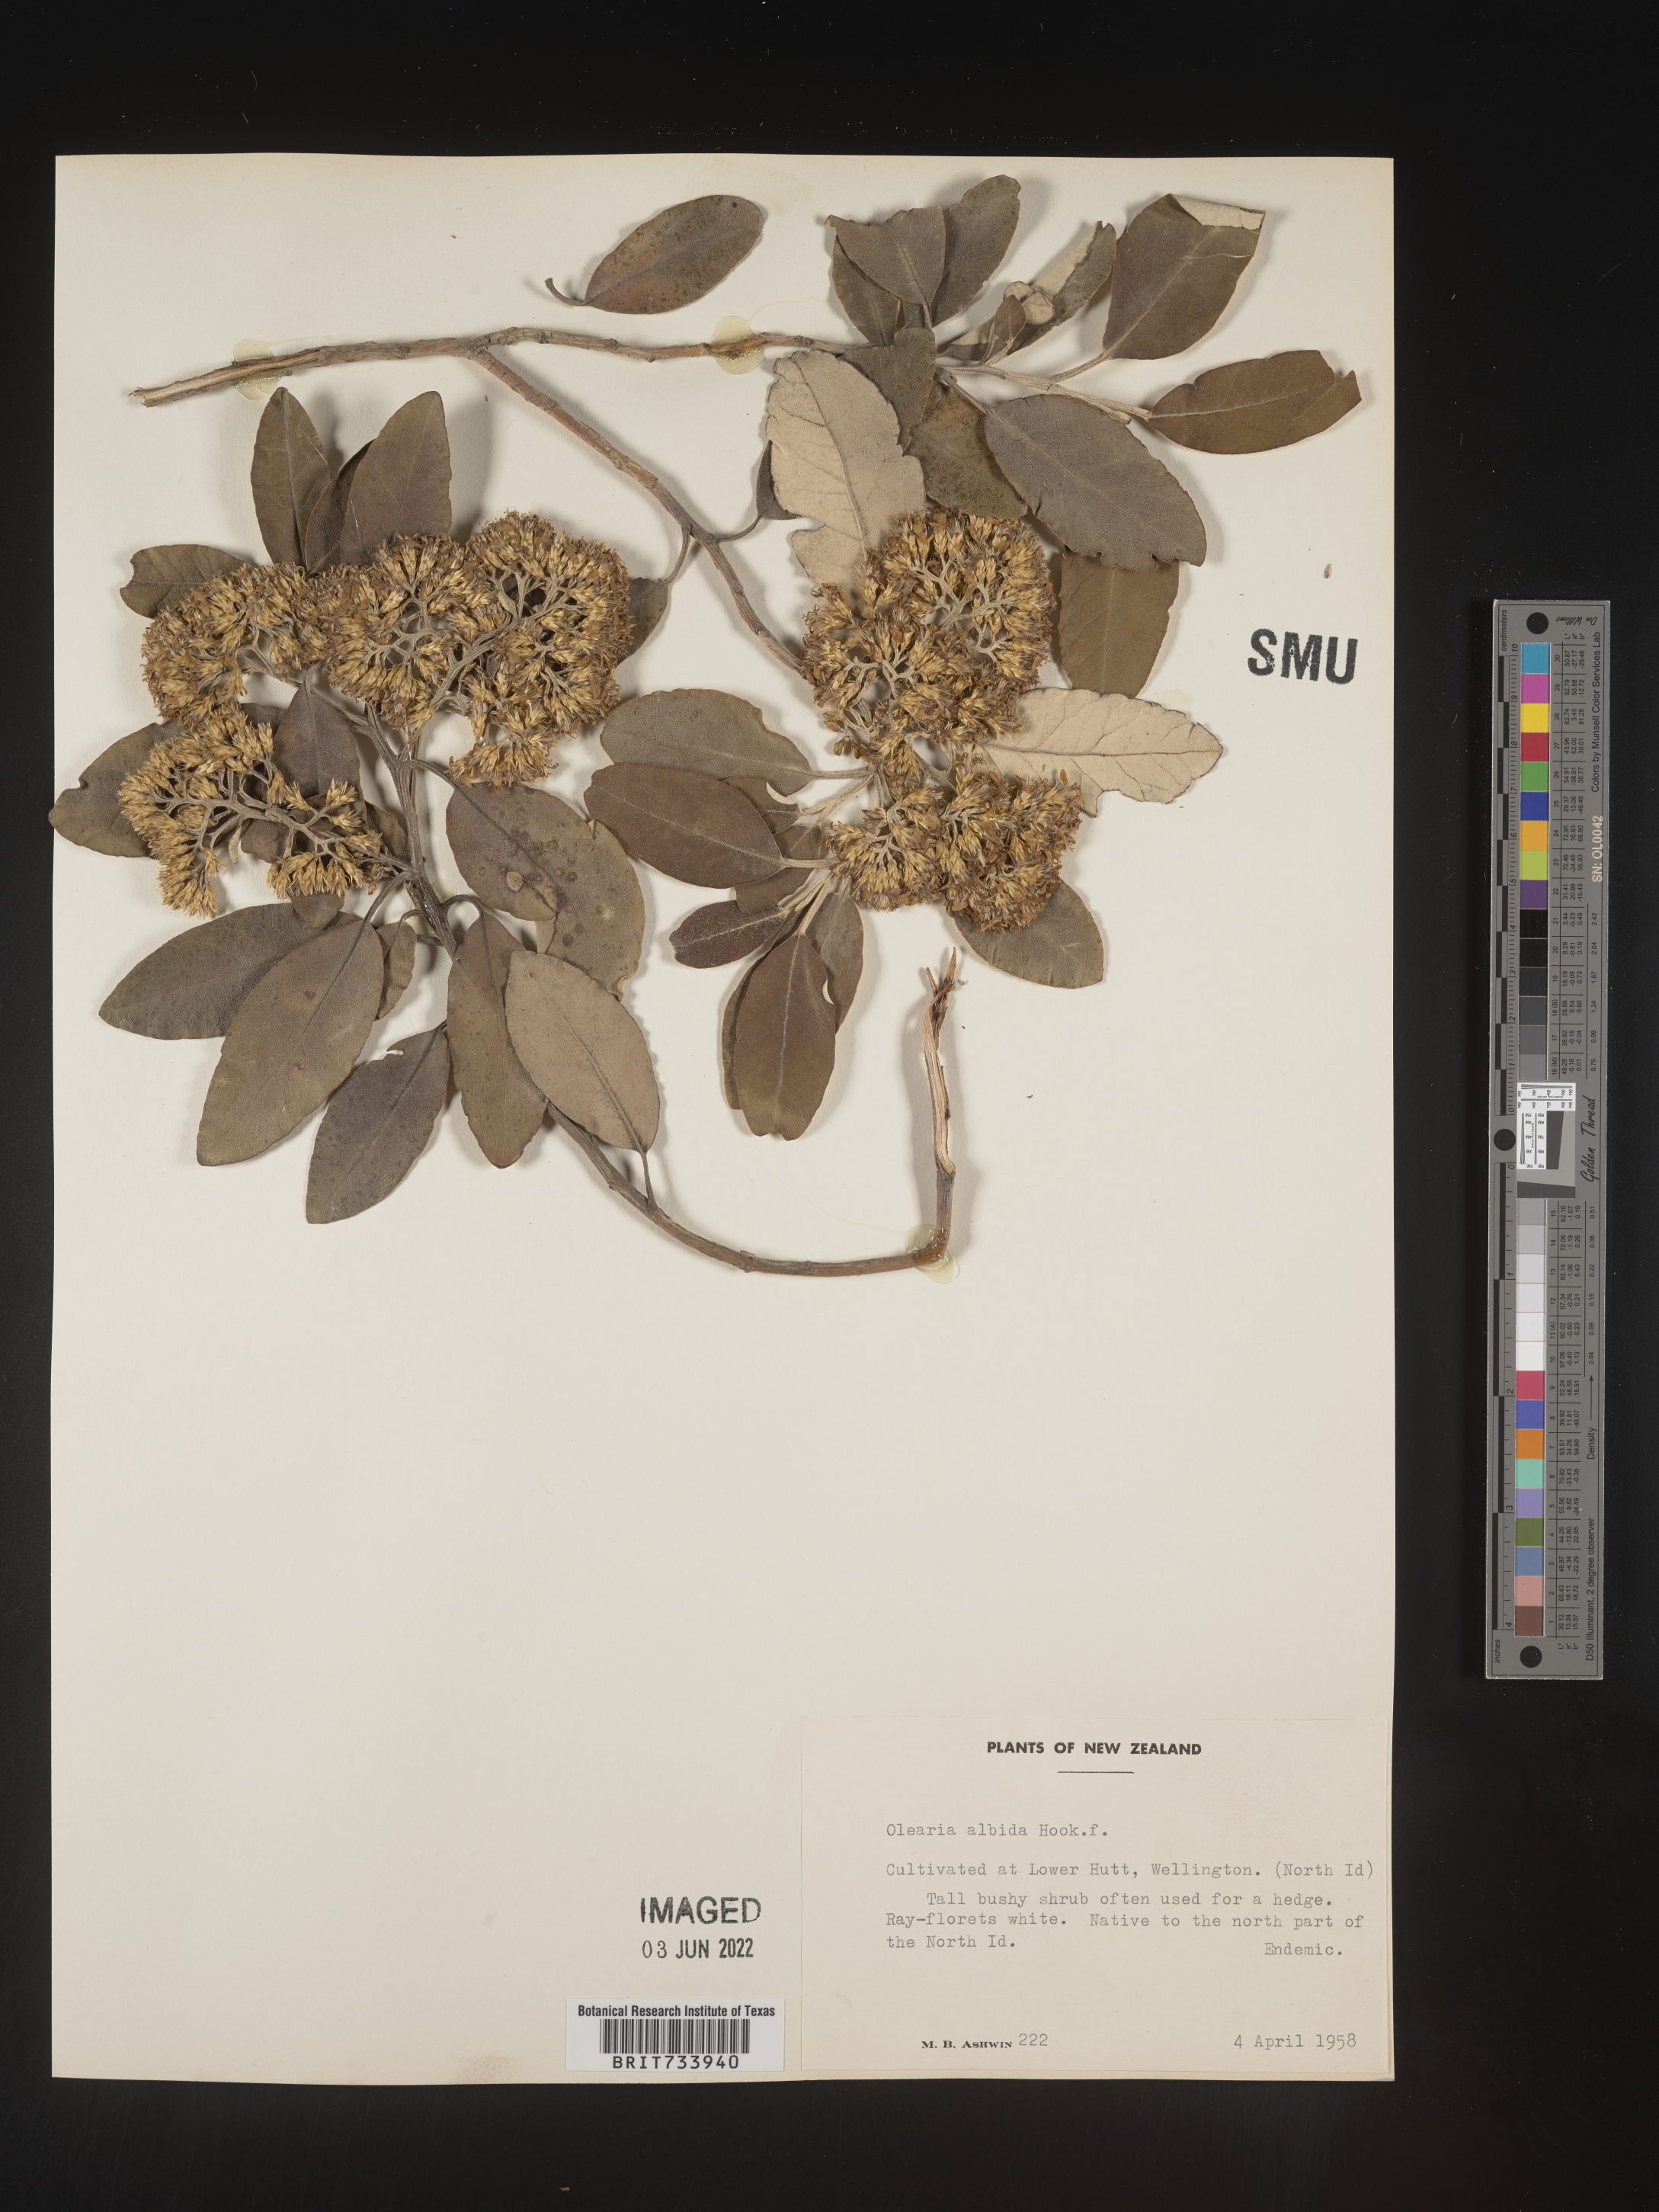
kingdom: Plantae
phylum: Tracheophyta
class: Magnoliopsida
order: Asterales
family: Asteraceae
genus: Olearia
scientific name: Olearia
